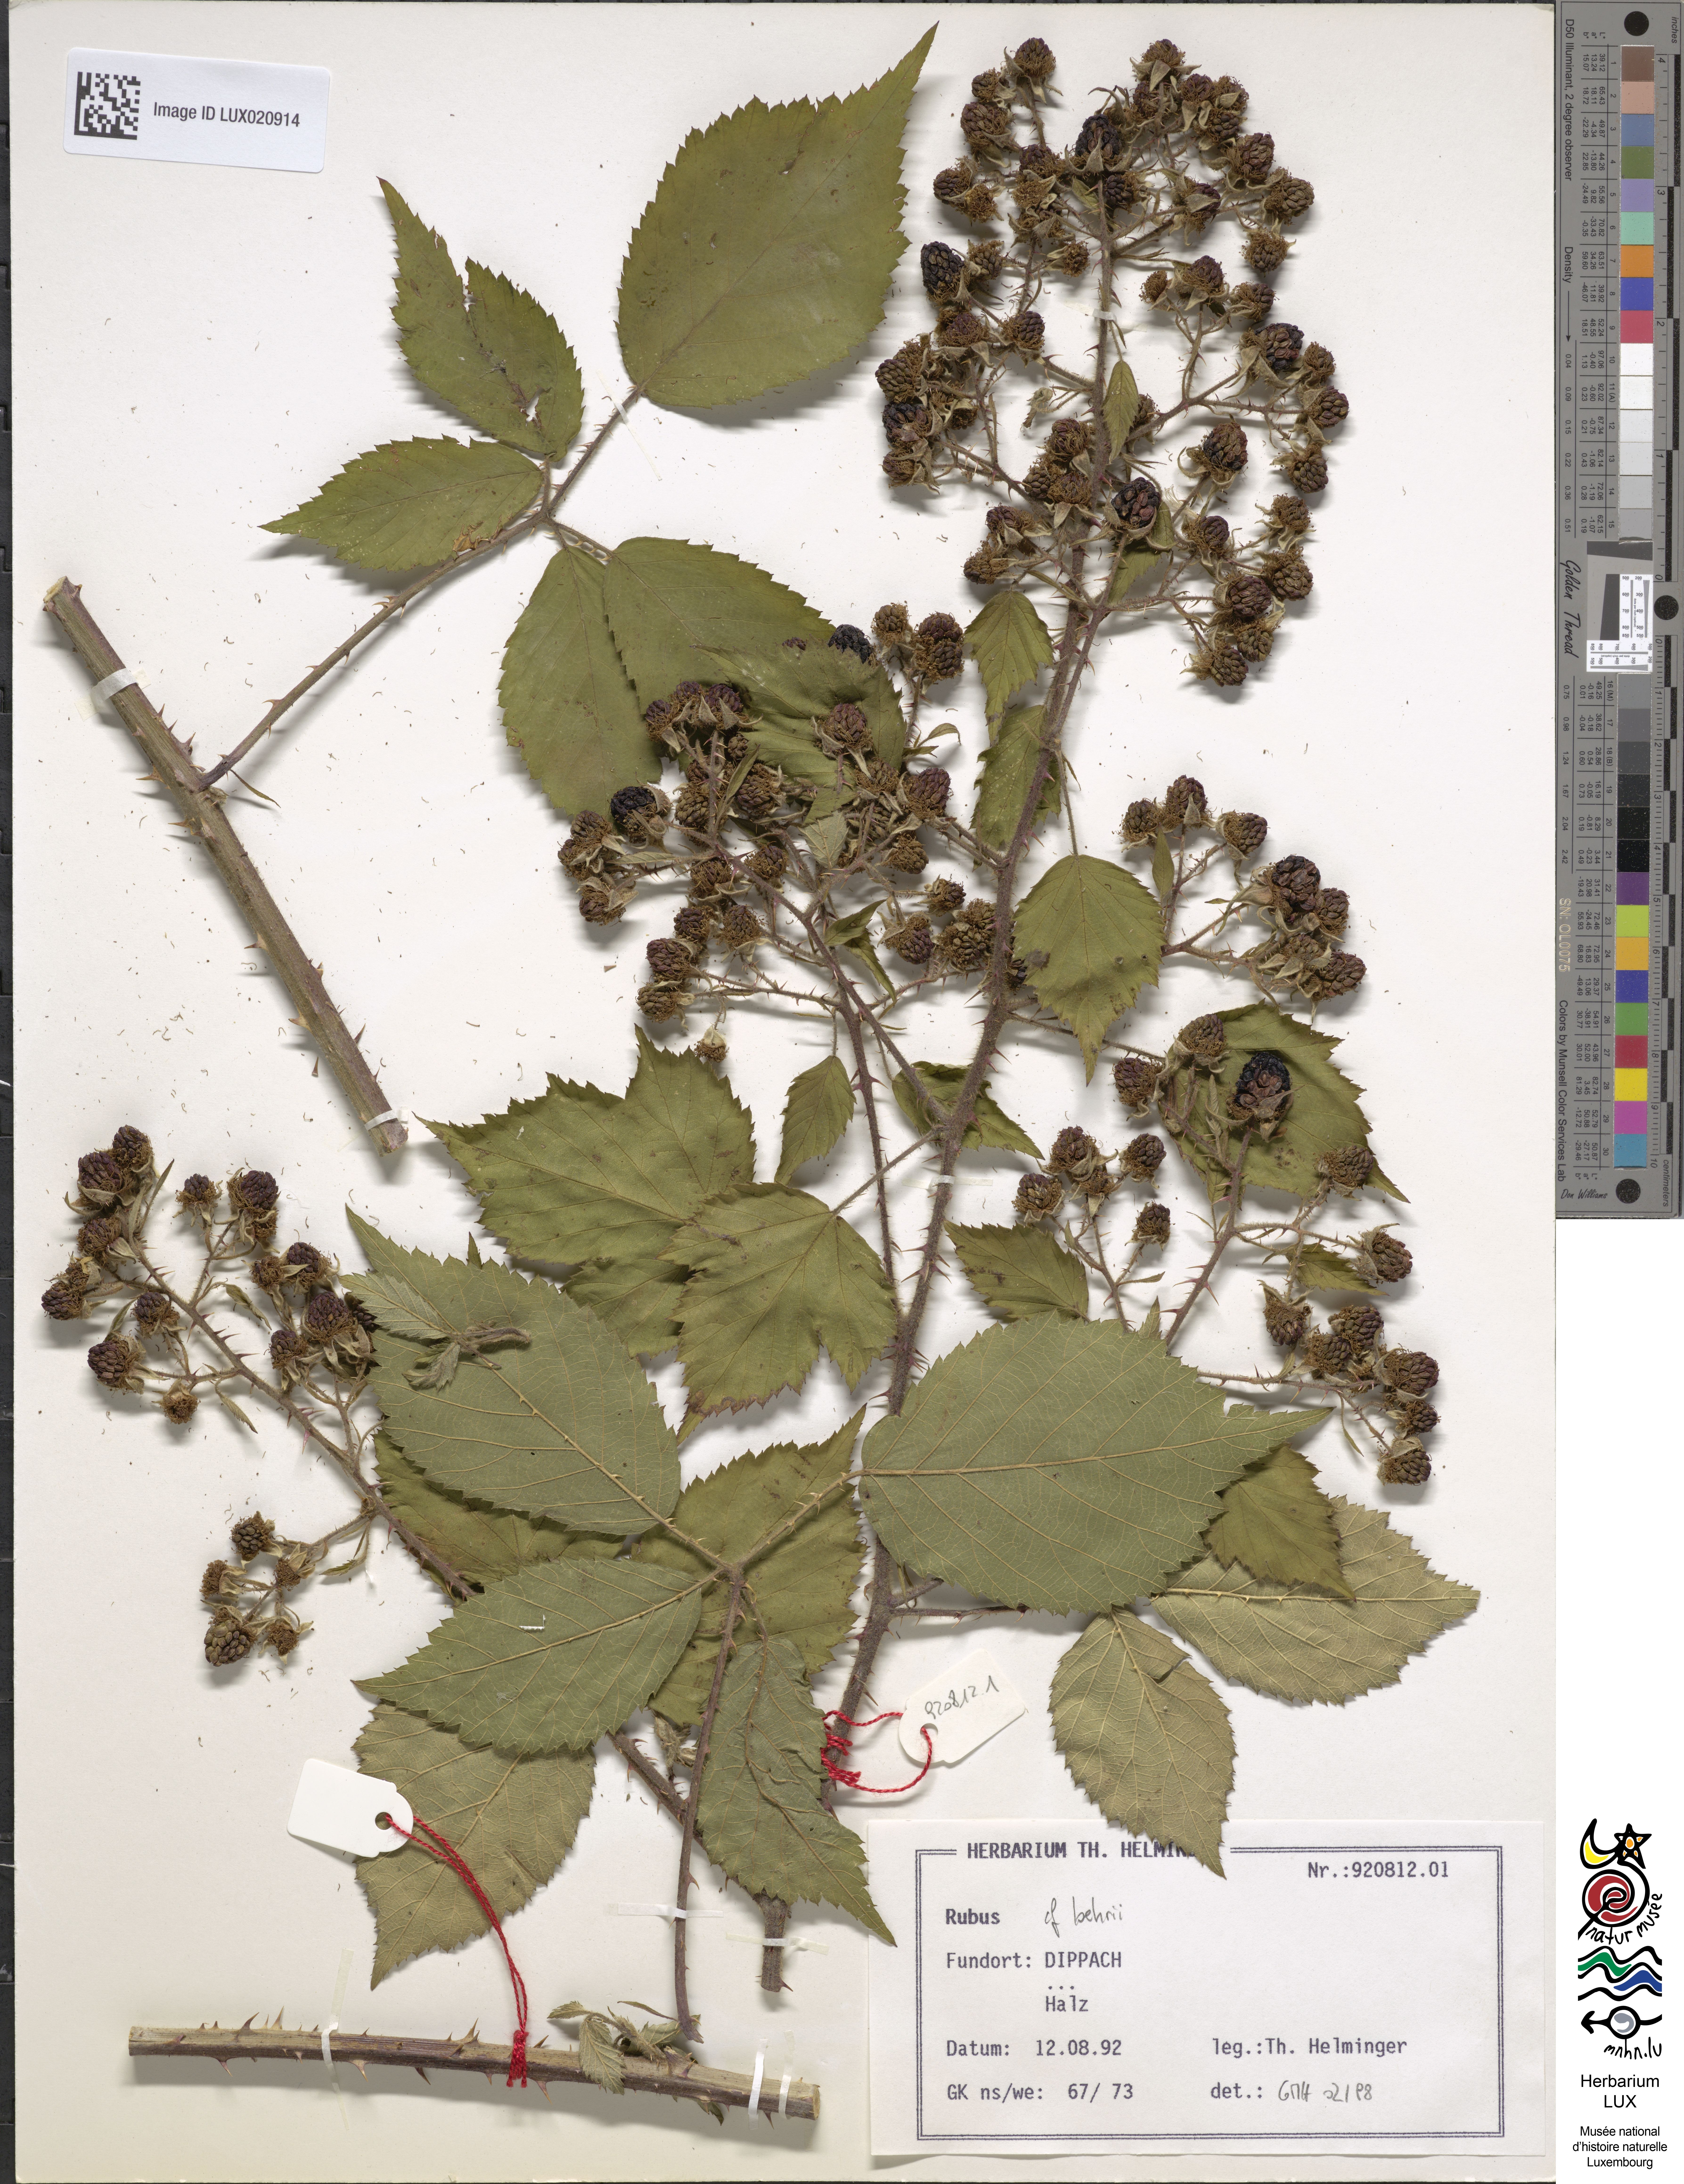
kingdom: Plantae
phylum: Tracheophyta
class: Magnoliopsida
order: Rosales
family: Rosaceae
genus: Rubus
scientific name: Rubus loehrii
